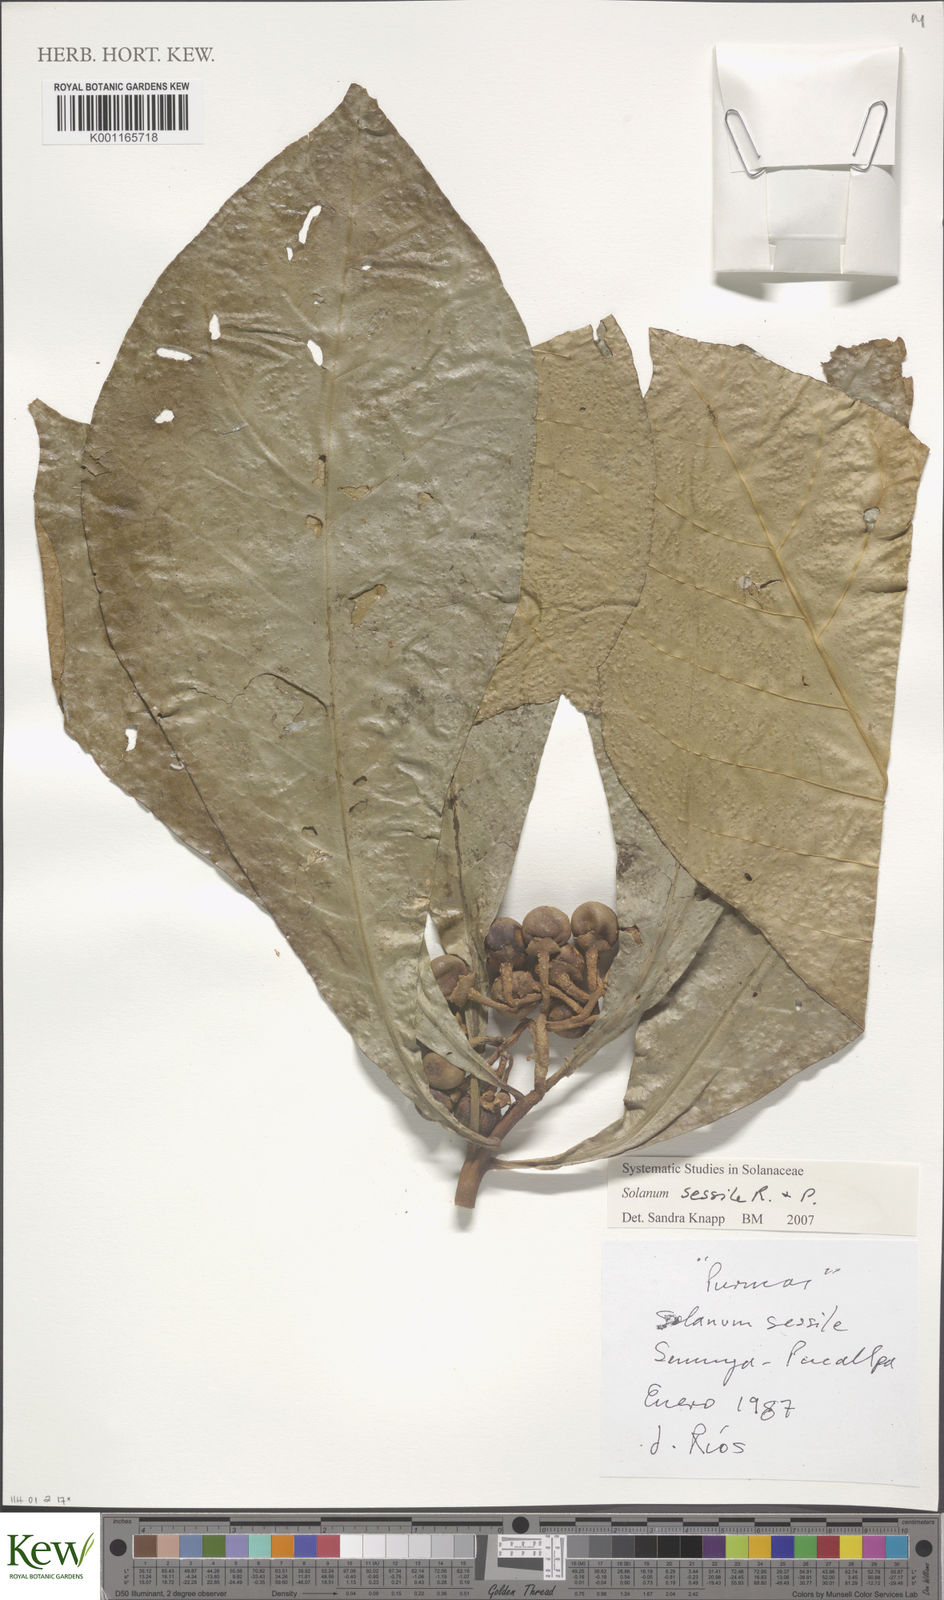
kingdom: Plantae
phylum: Tracheophyta
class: Magnoliopsida
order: Solanales
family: Solanaceae
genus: Solanum
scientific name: Solanum sessile
